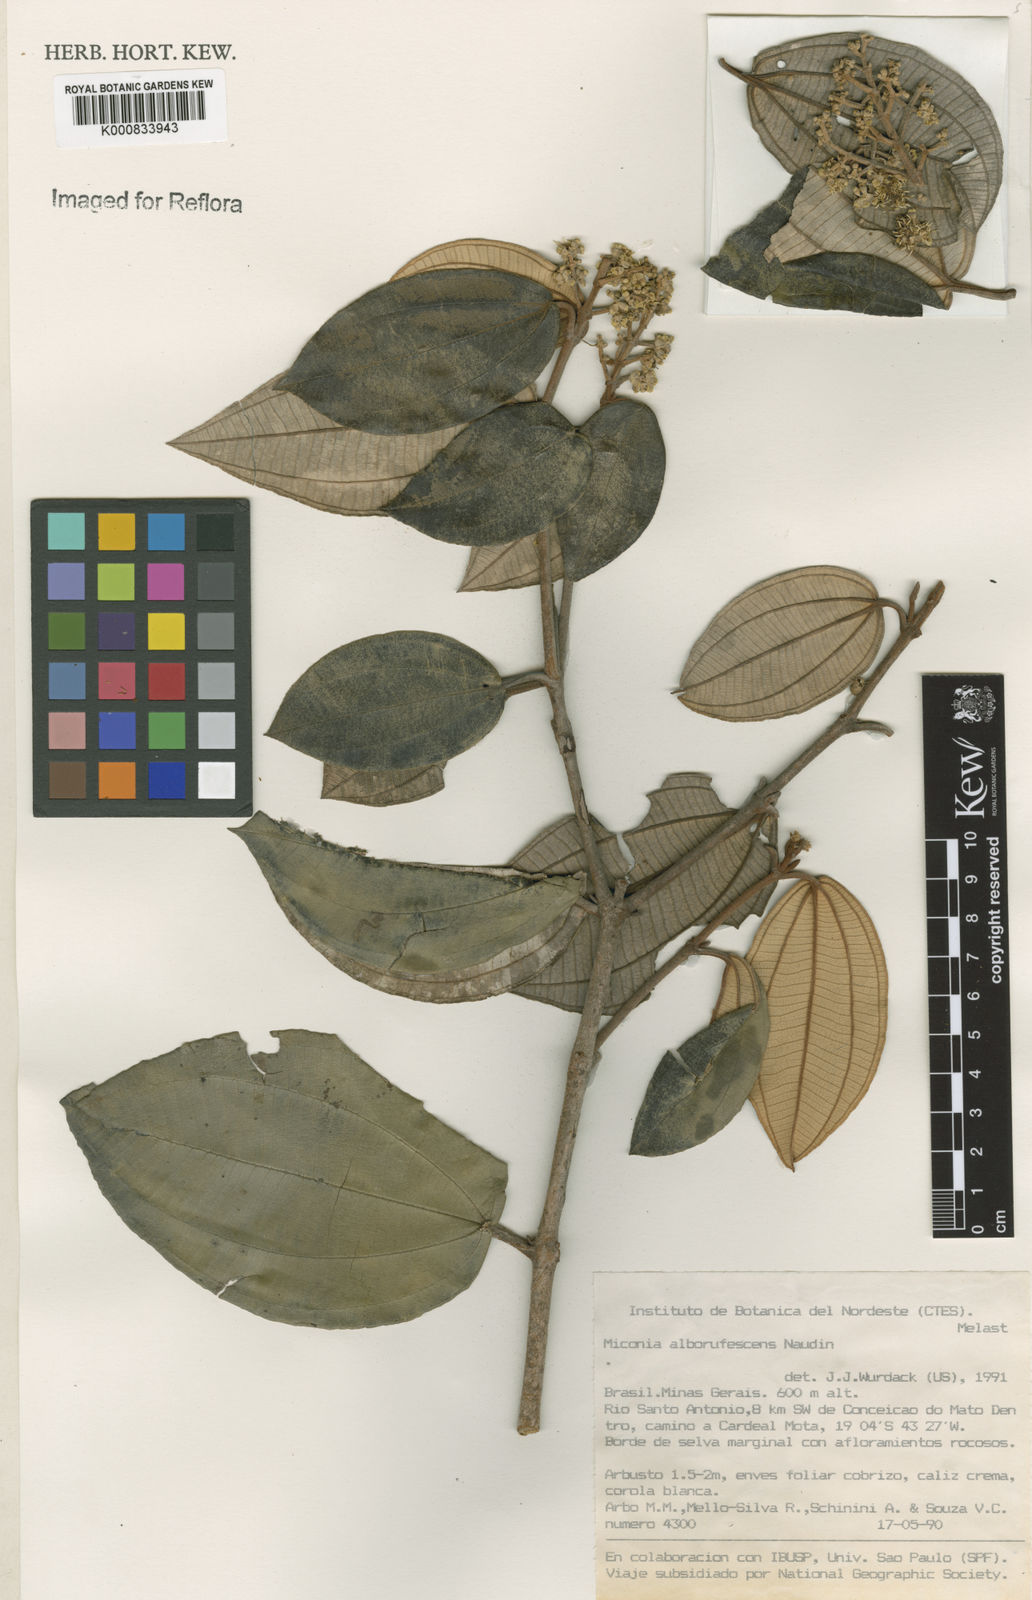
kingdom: Plantae
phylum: Tracheophyta
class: Magnoliopsida
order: Myrtales
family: Melastomataceae
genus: Miconia
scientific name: Miconia alborufescens
